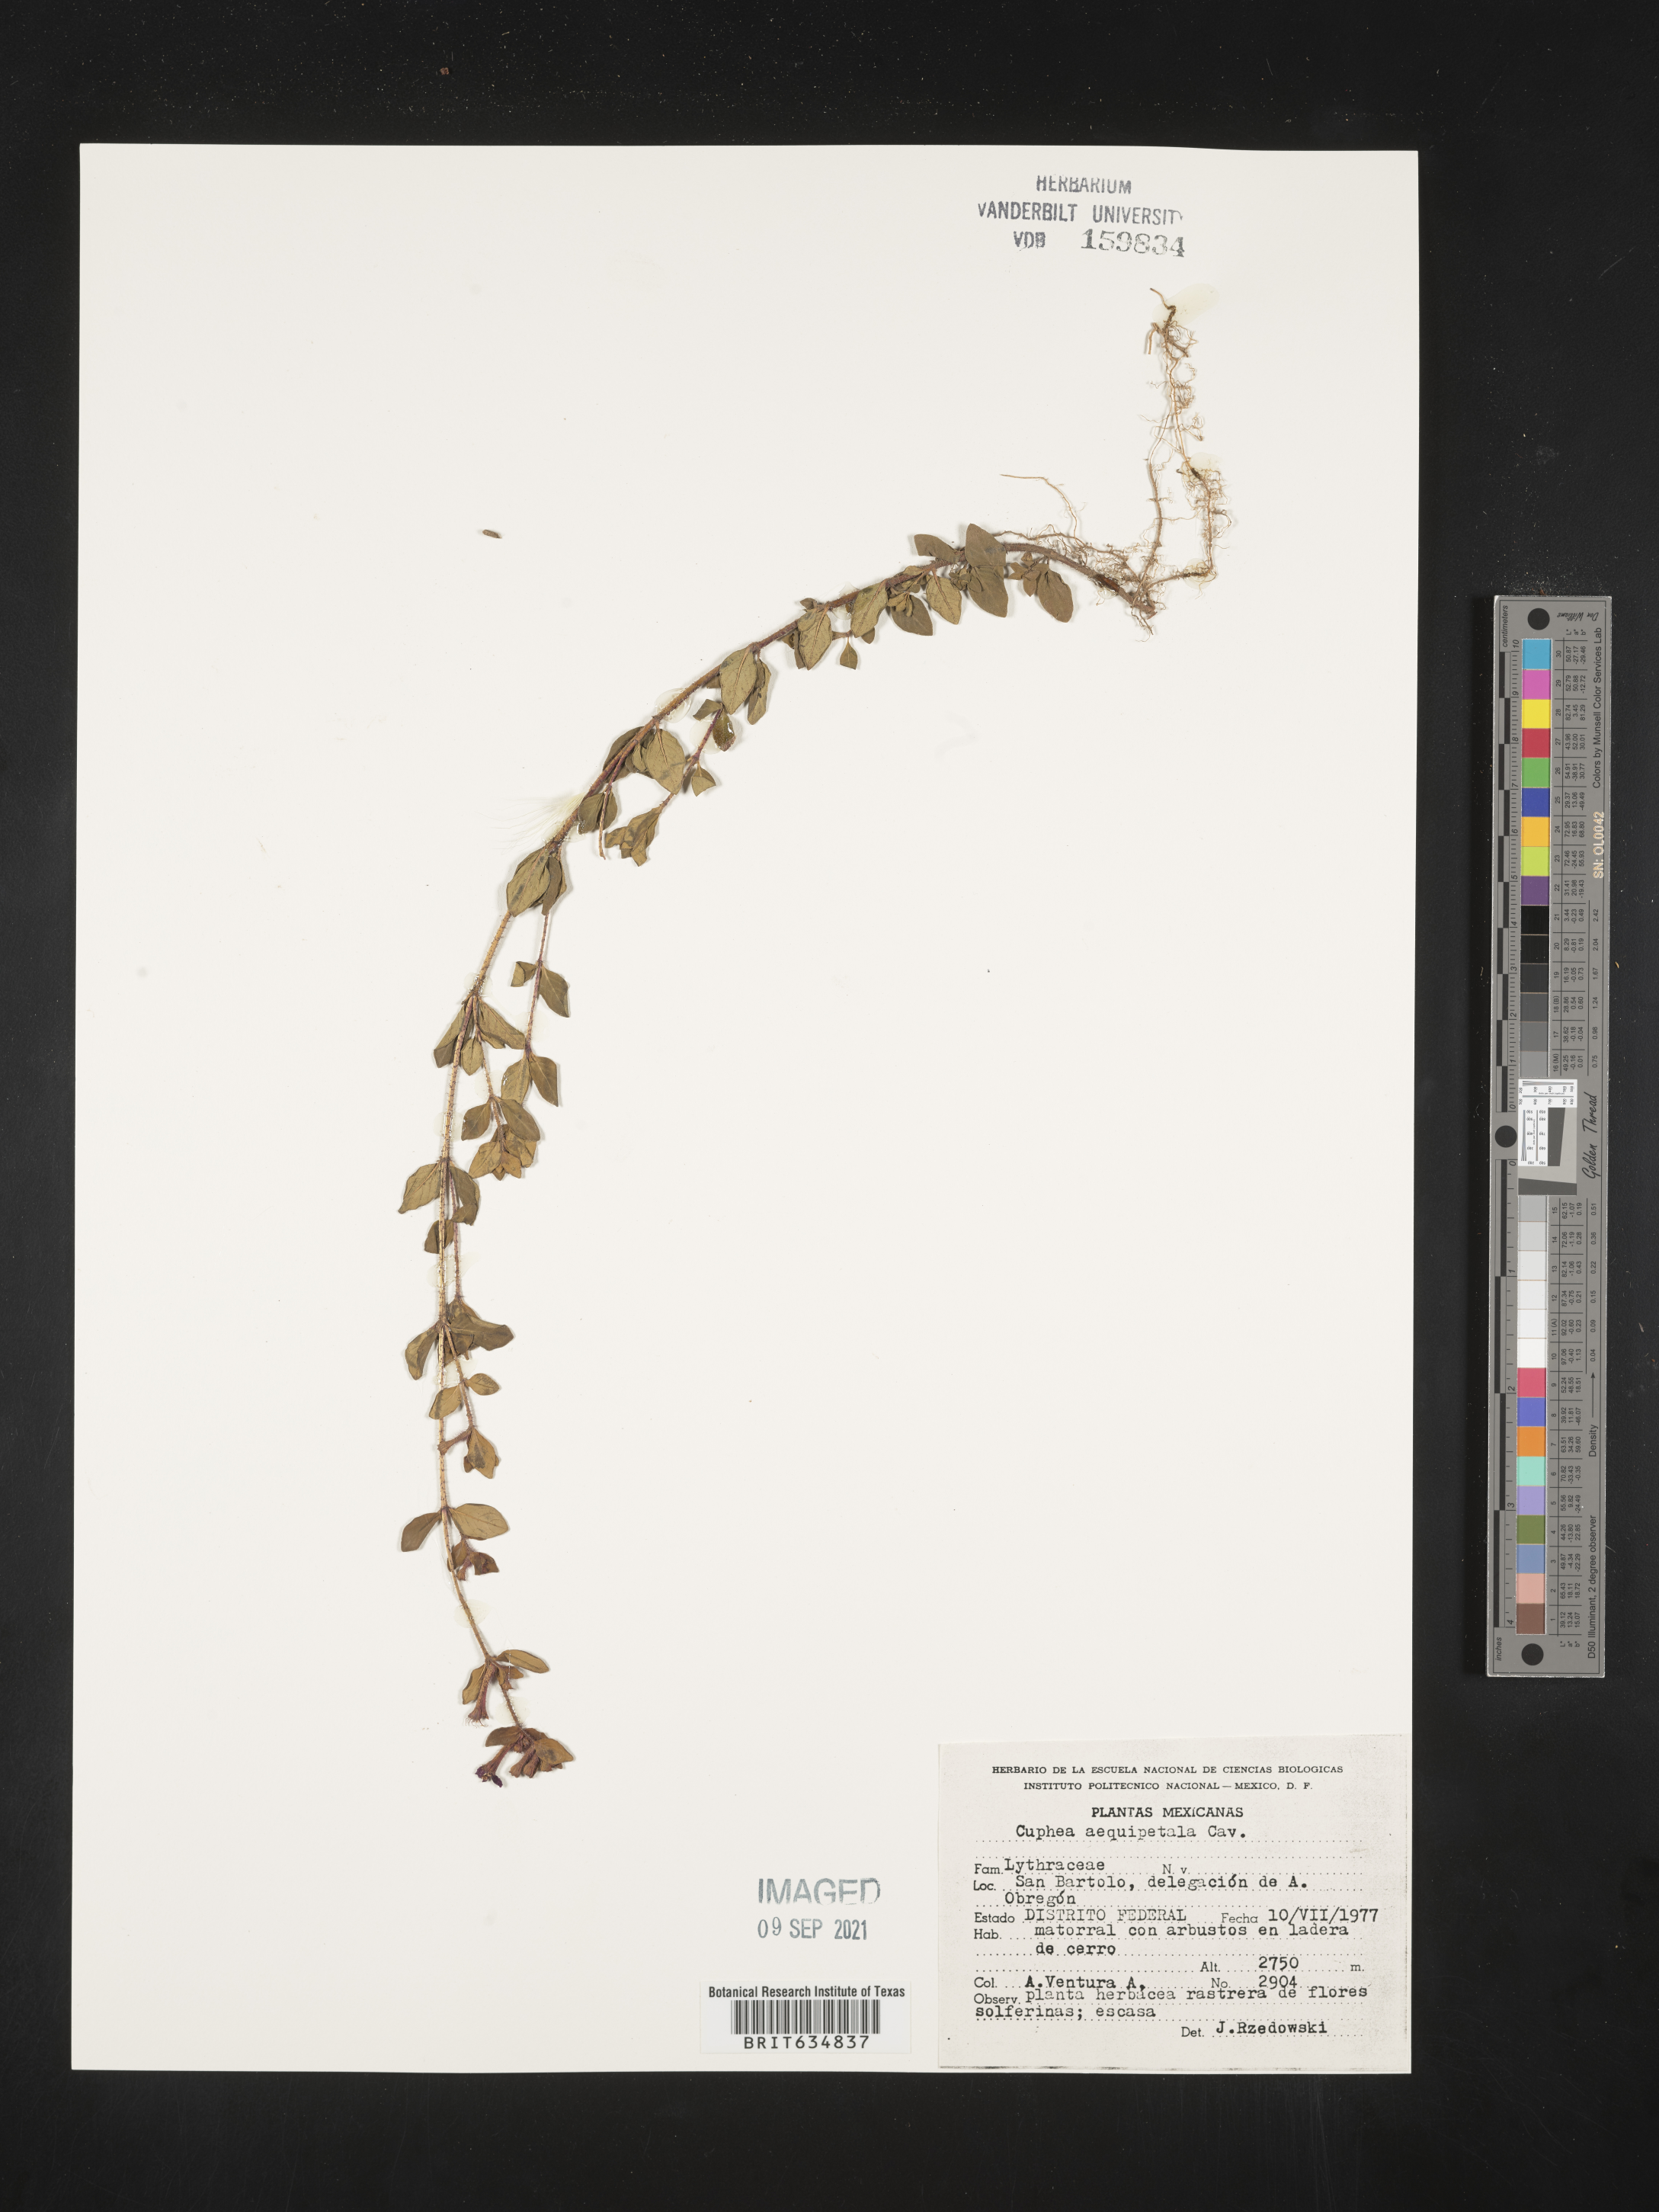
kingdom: Plantae
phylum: Tracheophyta
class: Magnoliopsida
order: Myrtales
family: Lythraceae
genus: Cuphea
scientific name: Cuphea
